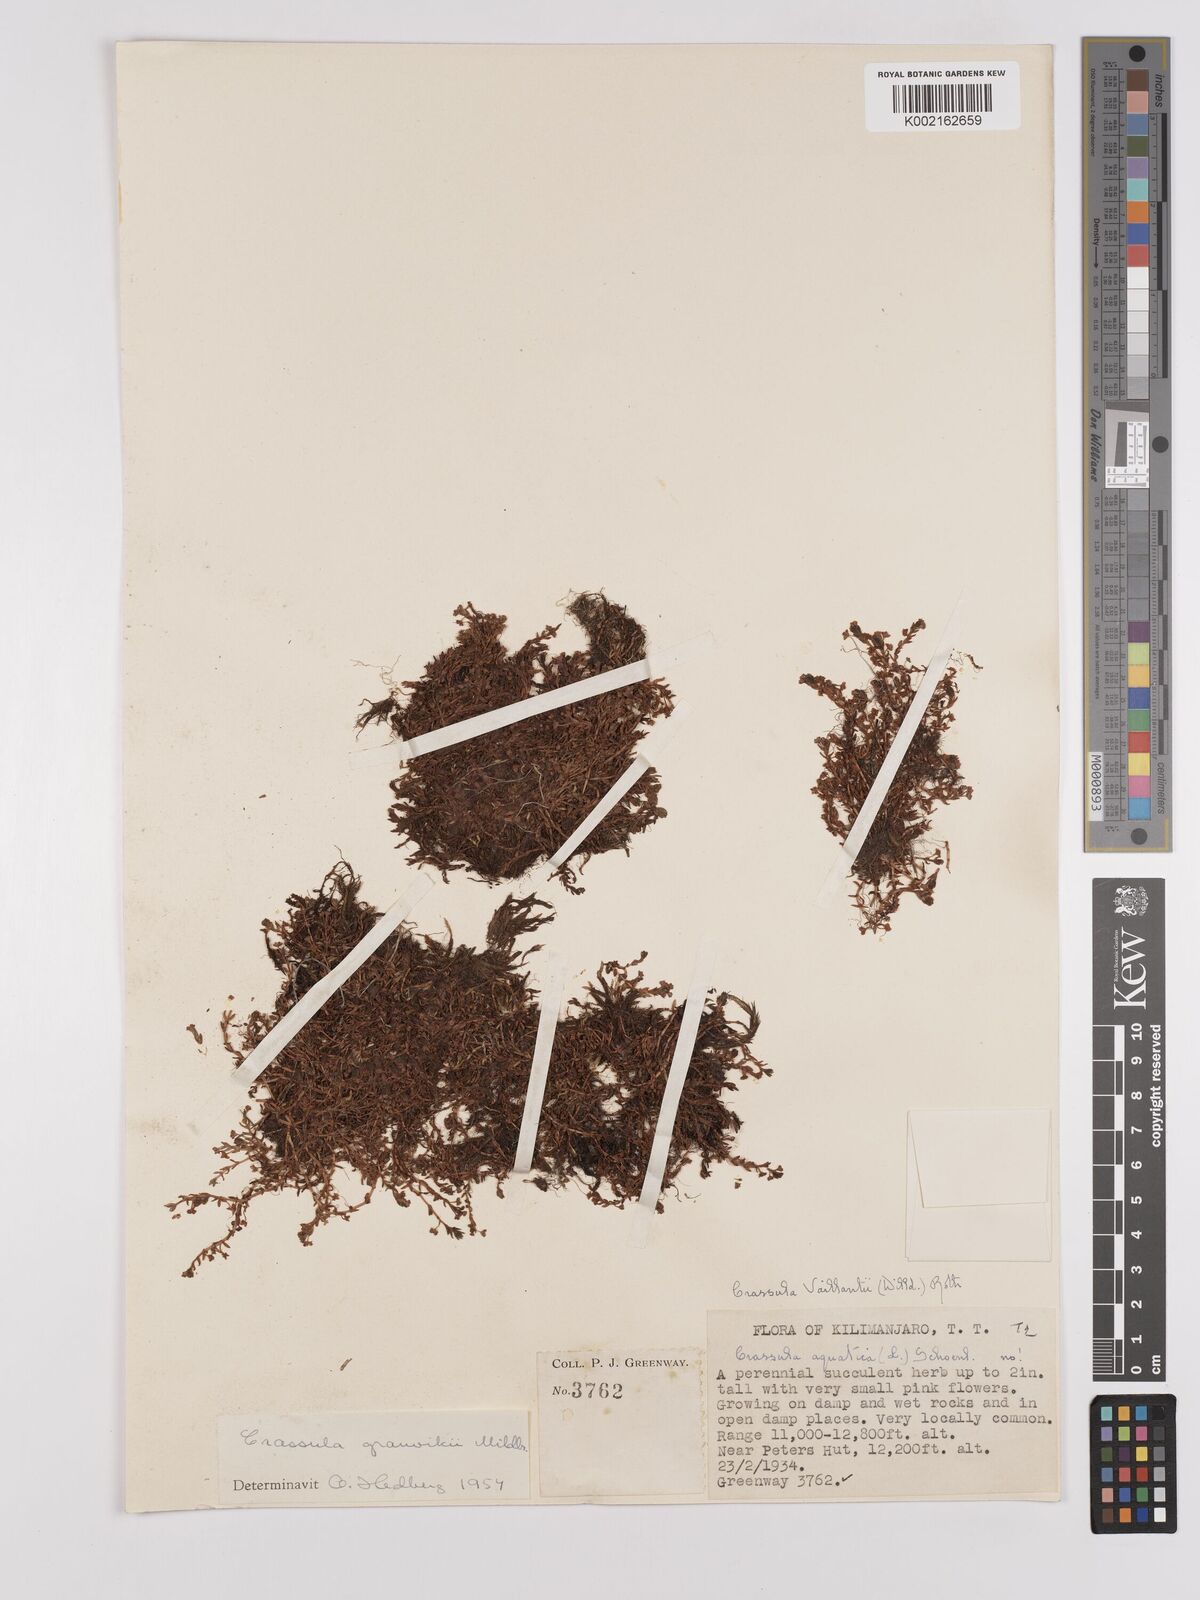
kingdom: Plantae
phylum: Tracheophyta
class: Magnoliopsida
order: Saxifragales
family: Crassulaceae
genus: Crassula
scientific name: Crassula granvikii
